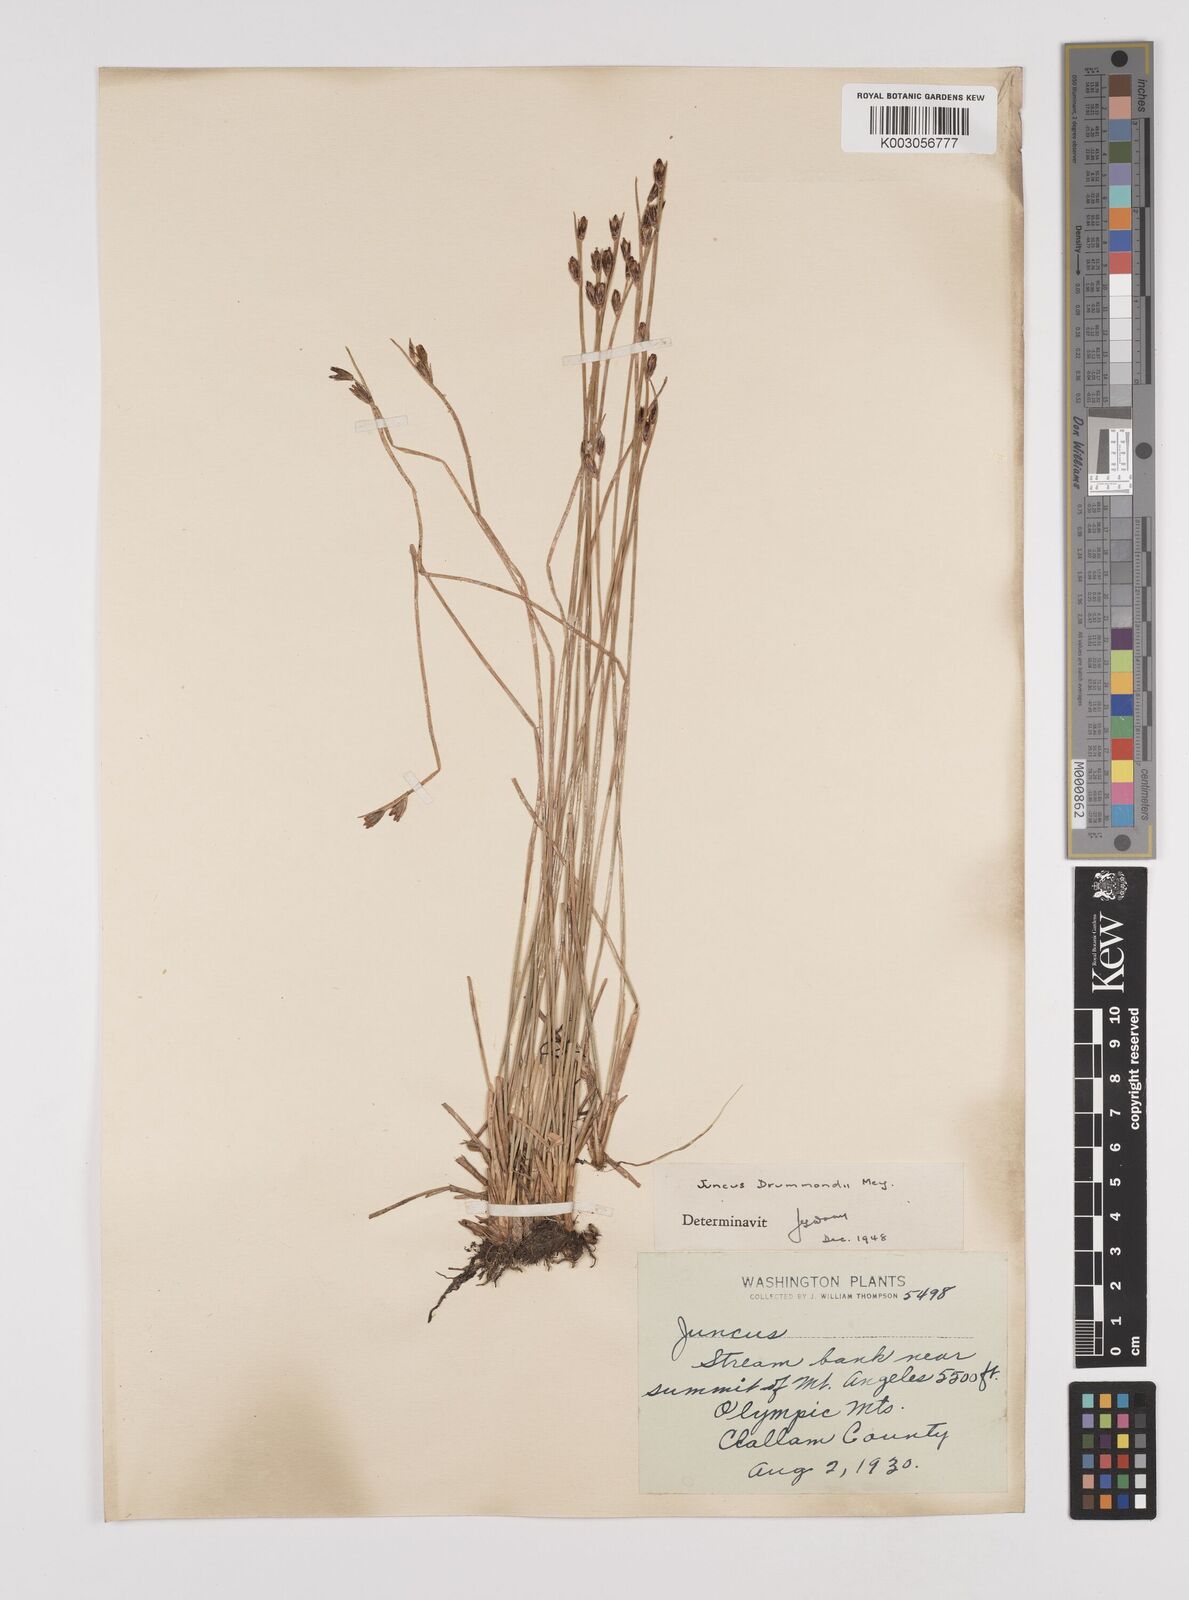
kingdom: Plantae
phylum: Tracheophyta
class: Liliopsida
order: Poales
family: Juncaceae
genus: Juncus
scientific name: Juncus drummondii
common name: Drummond's rush
